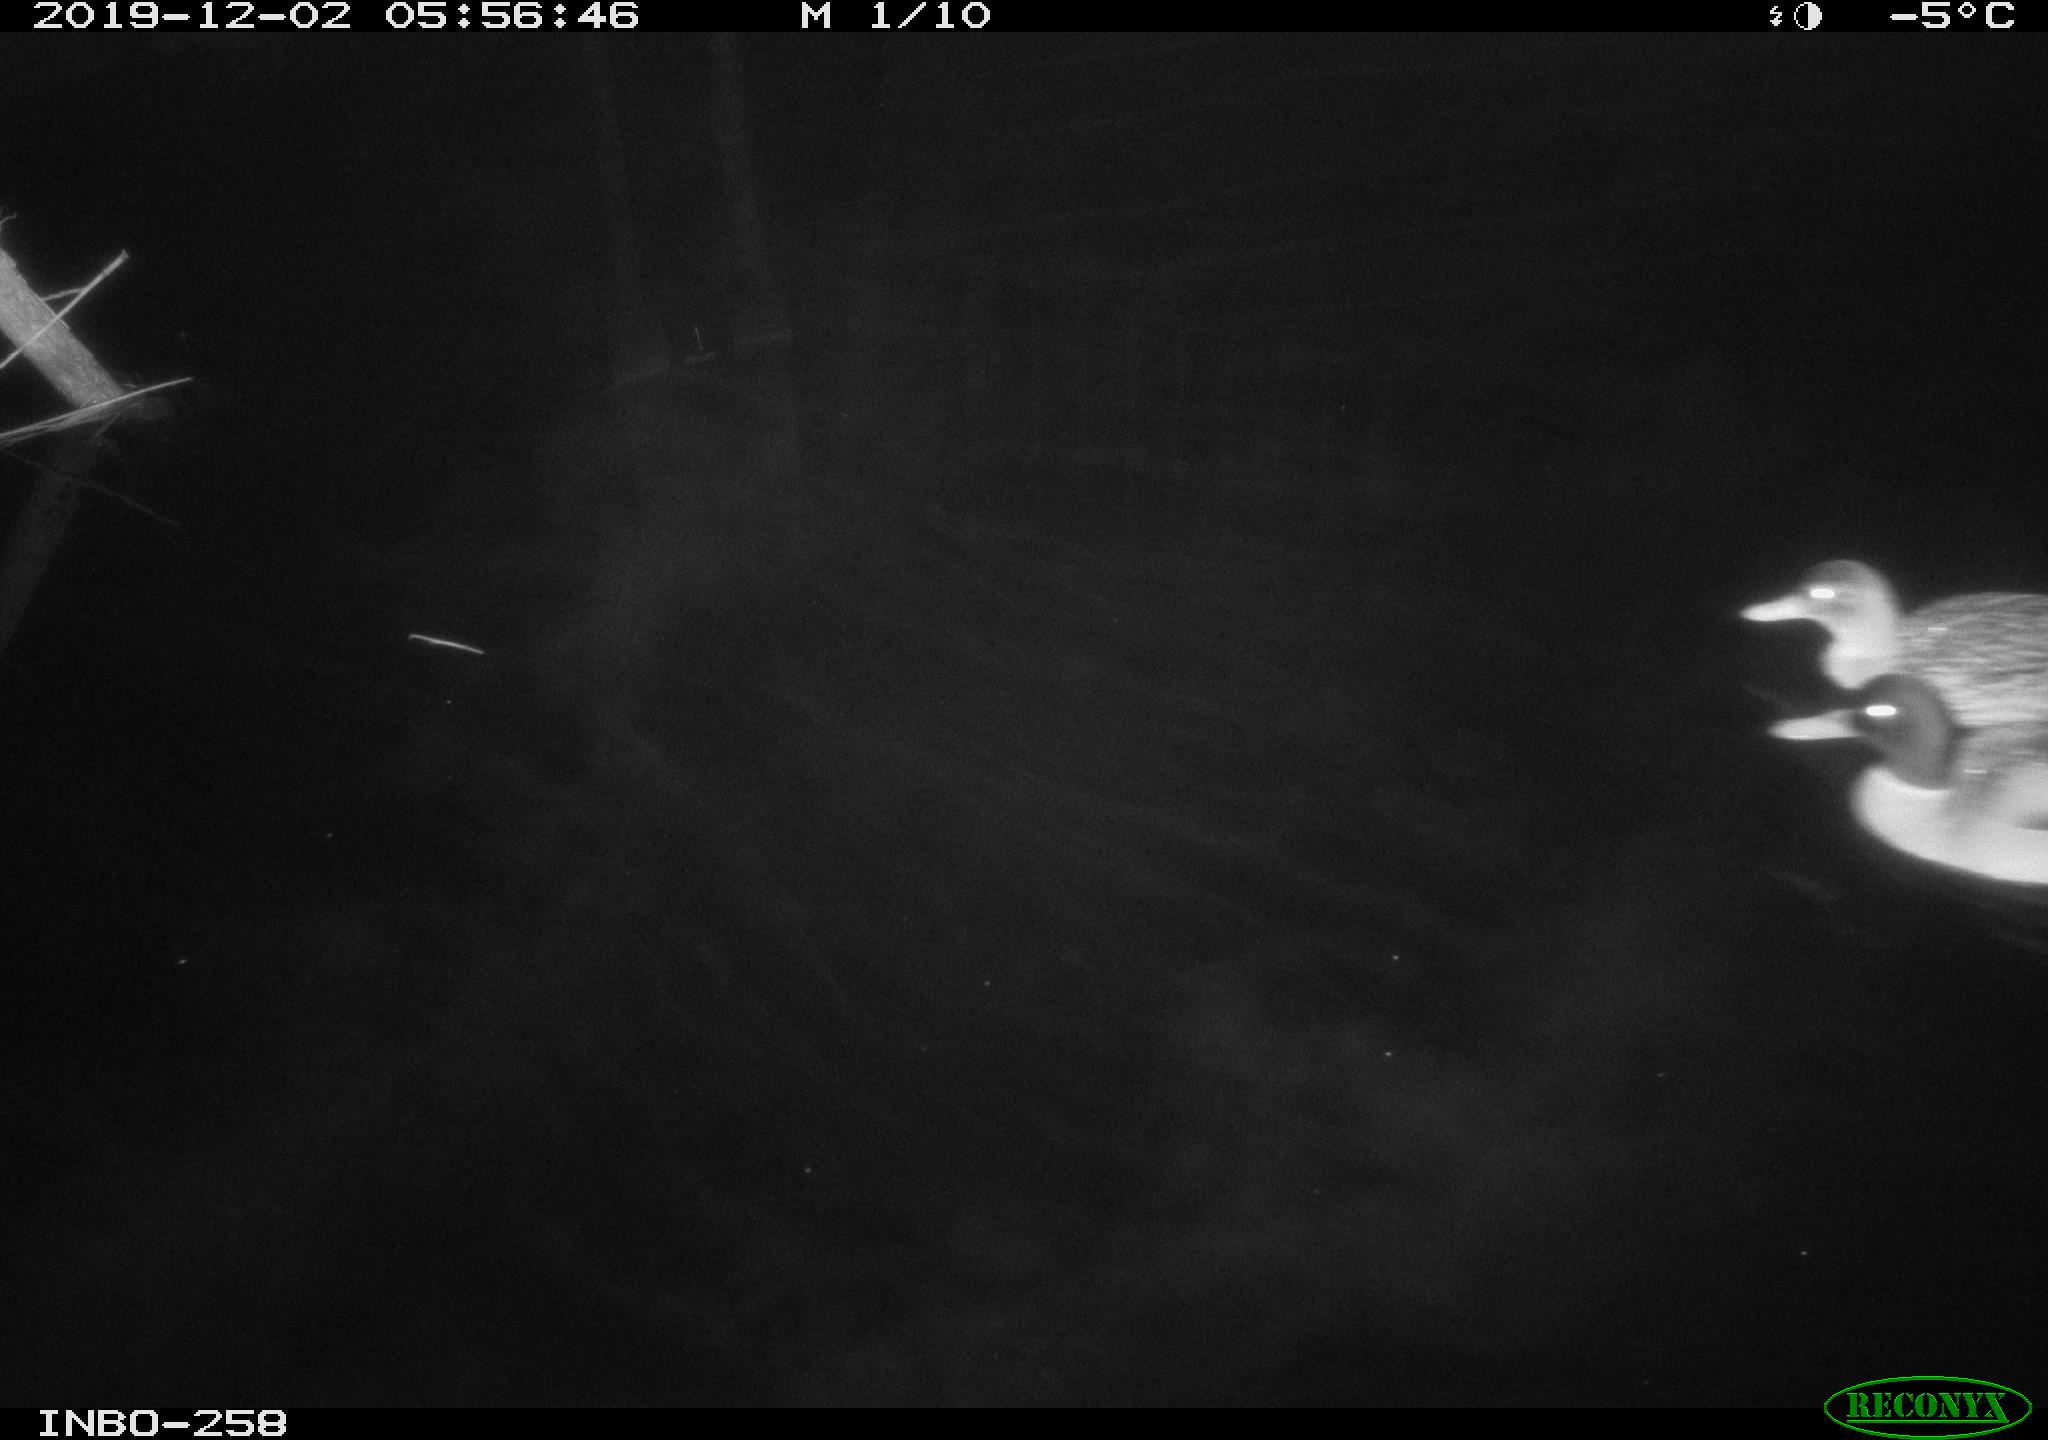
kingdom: Animalia
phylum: Chordata
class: Aves
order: Anseriformes
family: Anatidae
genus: Anas
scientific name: Anas platyrhynchos
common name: Mallard
